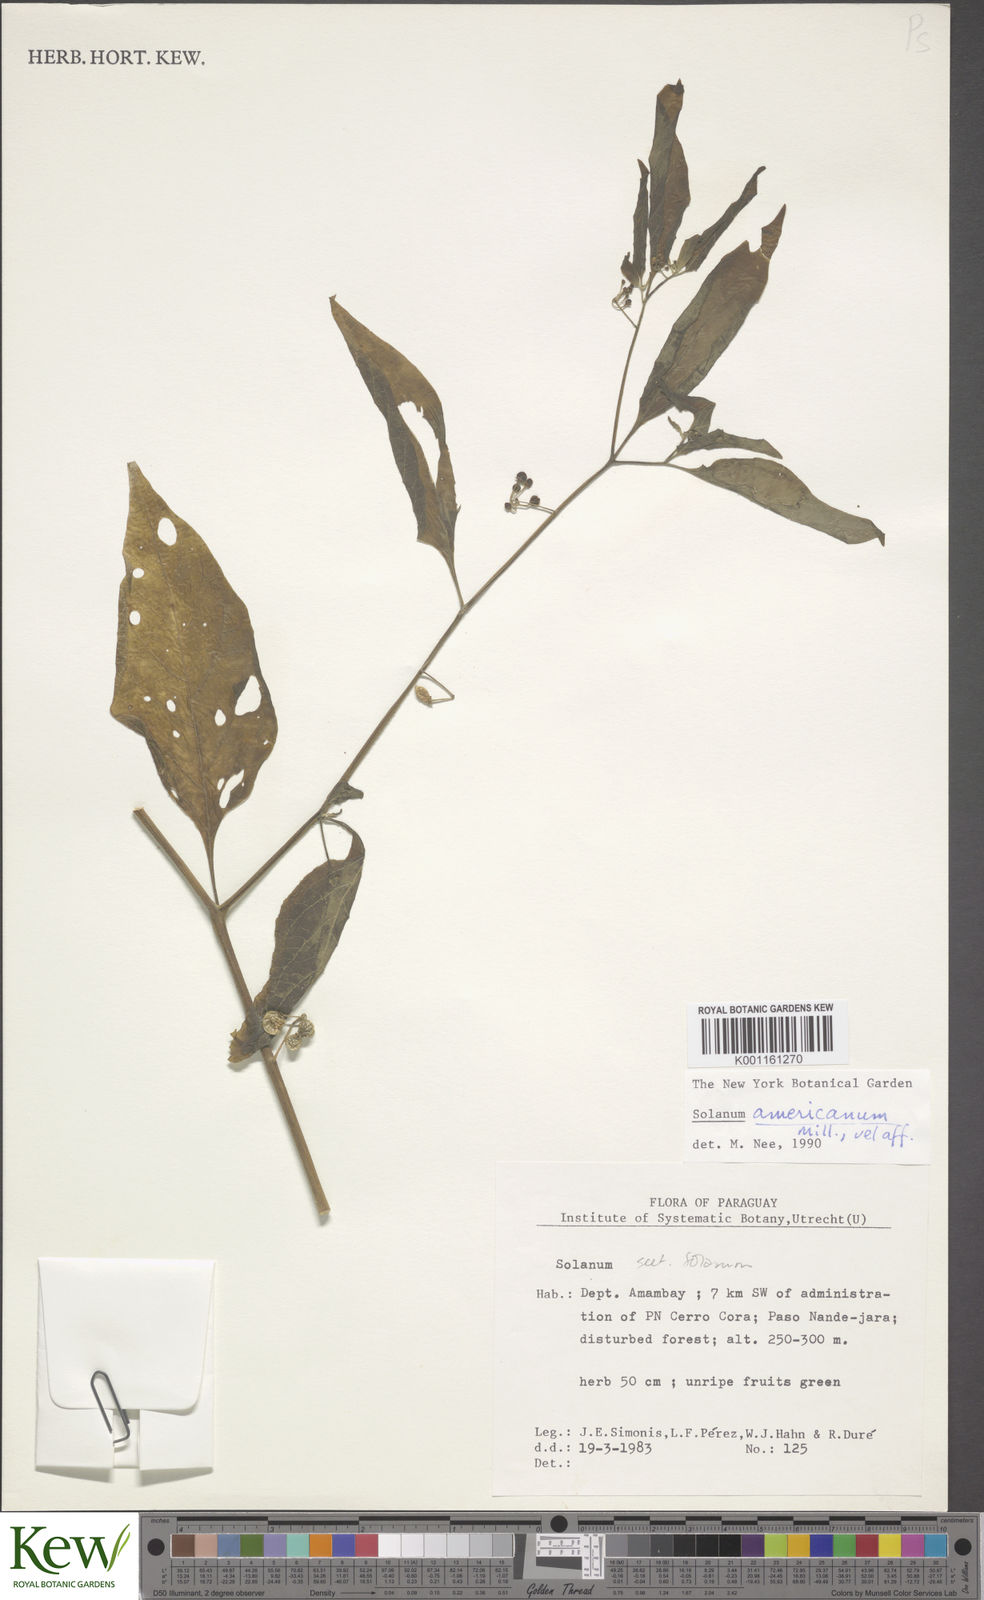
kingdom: Plantae
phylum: Tracheophyta
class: Magnoliopsida
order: Solanales
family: Solanaceae
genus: Solanum
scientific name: Solanum americanum
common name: American black nightshade
